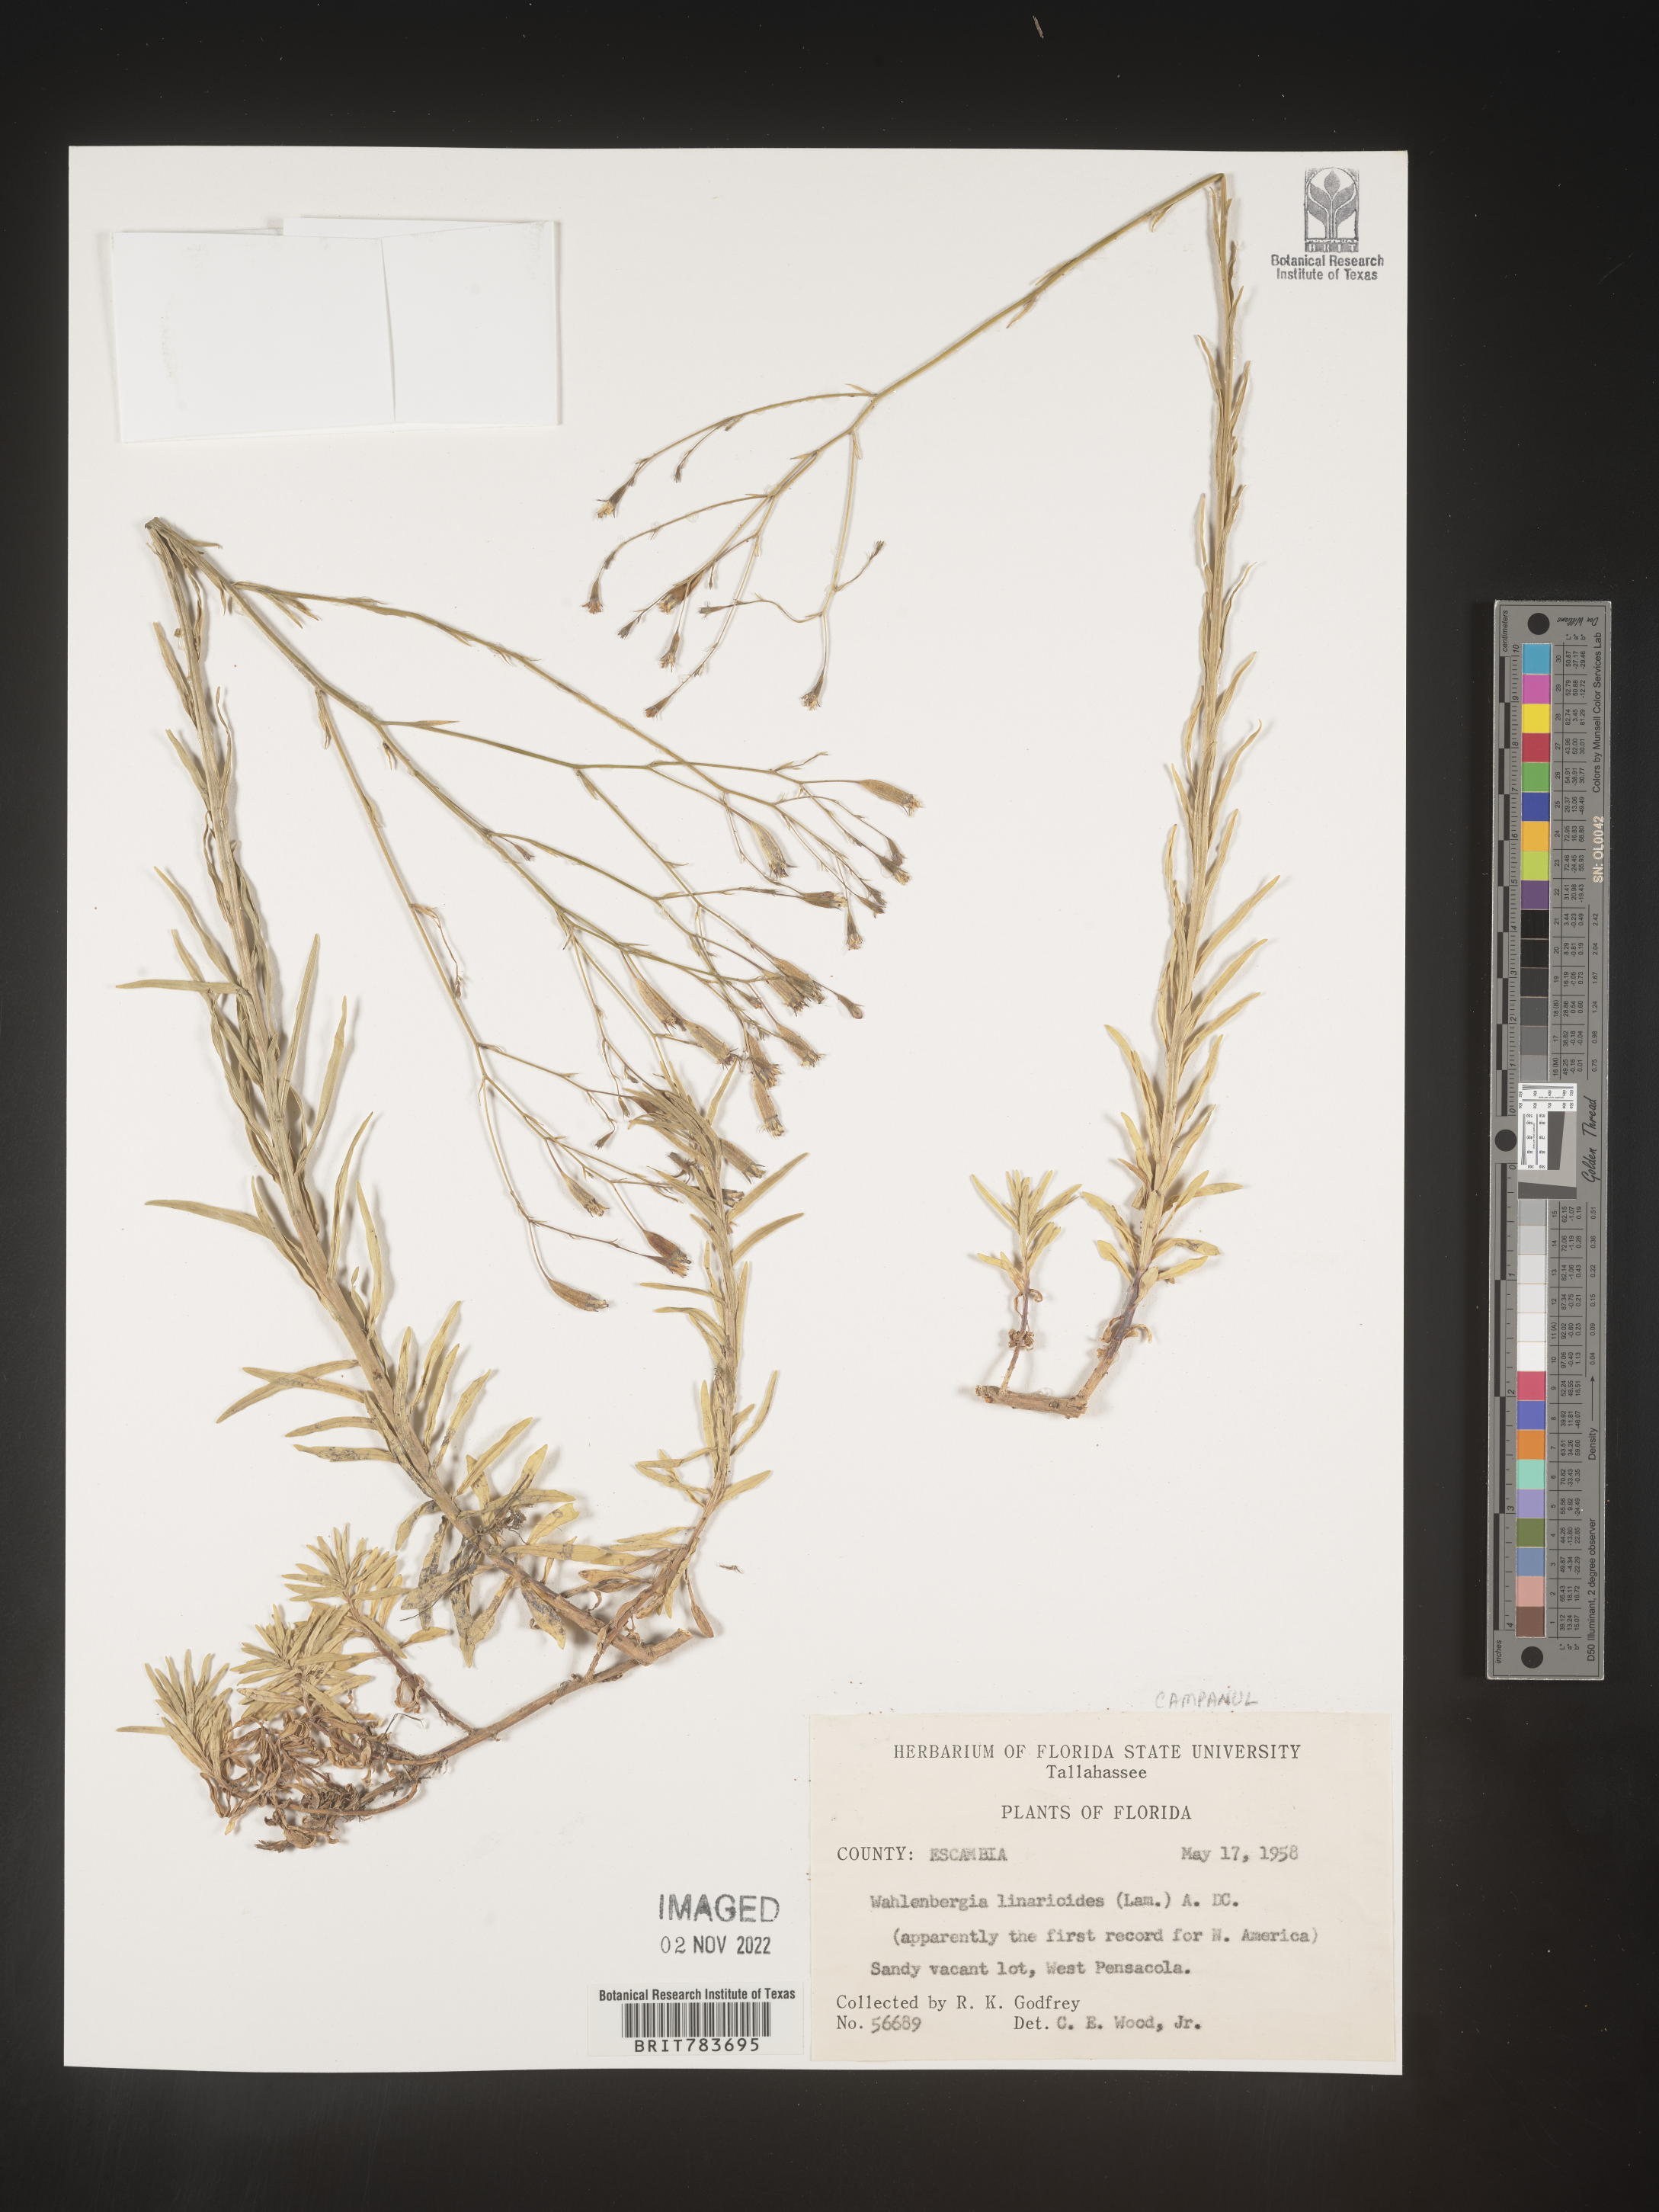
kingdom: Plantae
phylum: Tracheophyta
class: Magnoliopsida
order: Asterales
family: Campanulaceae
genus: Wahlenbergia
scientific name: Wahlenbergia linarioides
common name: Tuffybells
